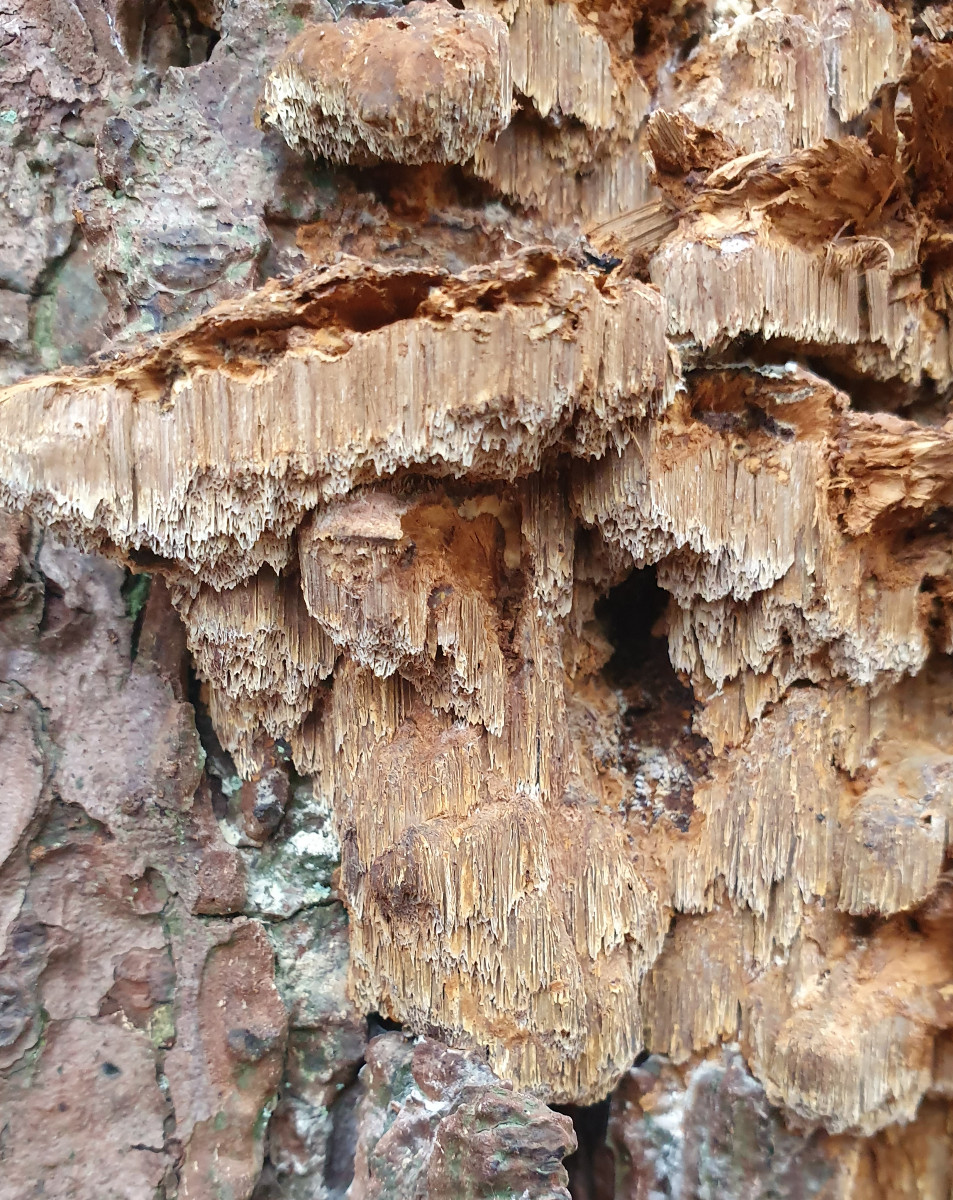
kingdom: Fungi
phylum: Basidiomycota
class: Agaricomycetes
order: Hymenochaetales
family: Hymenochaetaceae
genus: Xanthoporia
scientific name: Xanthoporia radiata
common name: elle-spejlporesvamp
